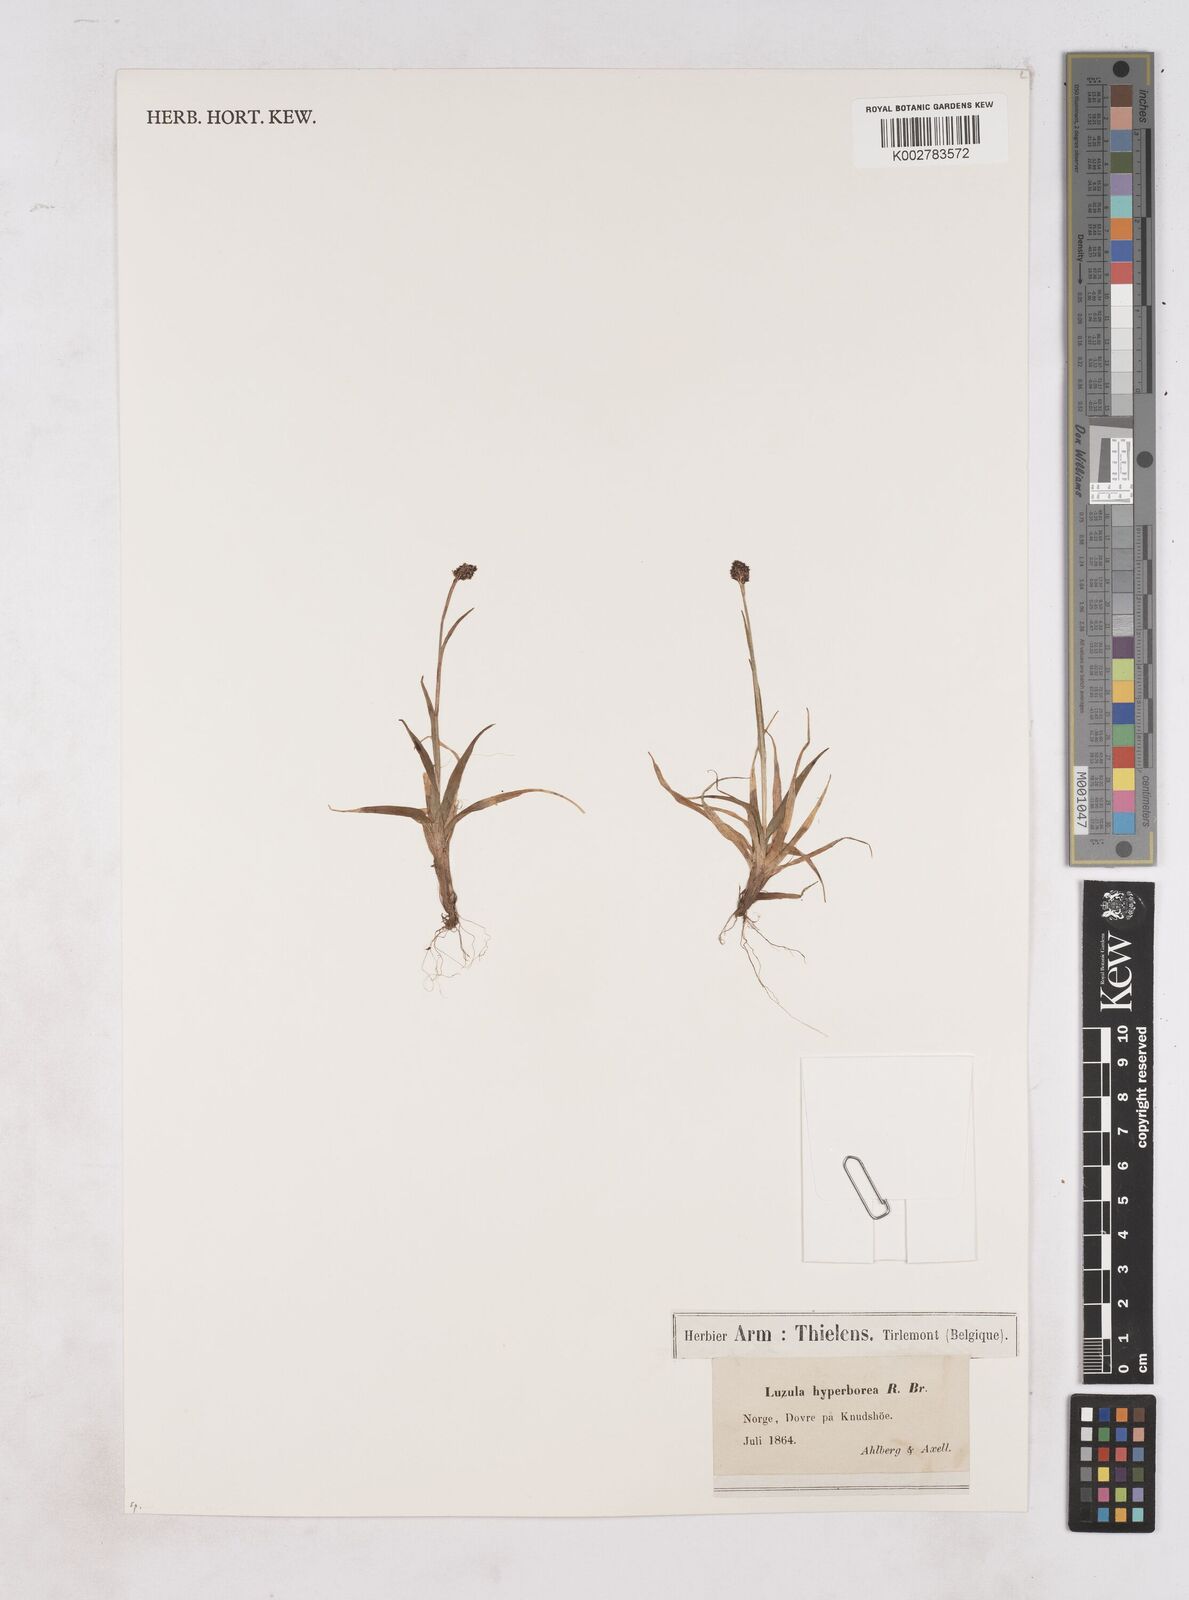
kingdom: Plantae
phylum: Tracheophyta
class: Liliopsida
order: Poales
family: Juncaceae
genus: Luzula
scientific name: Luzula
